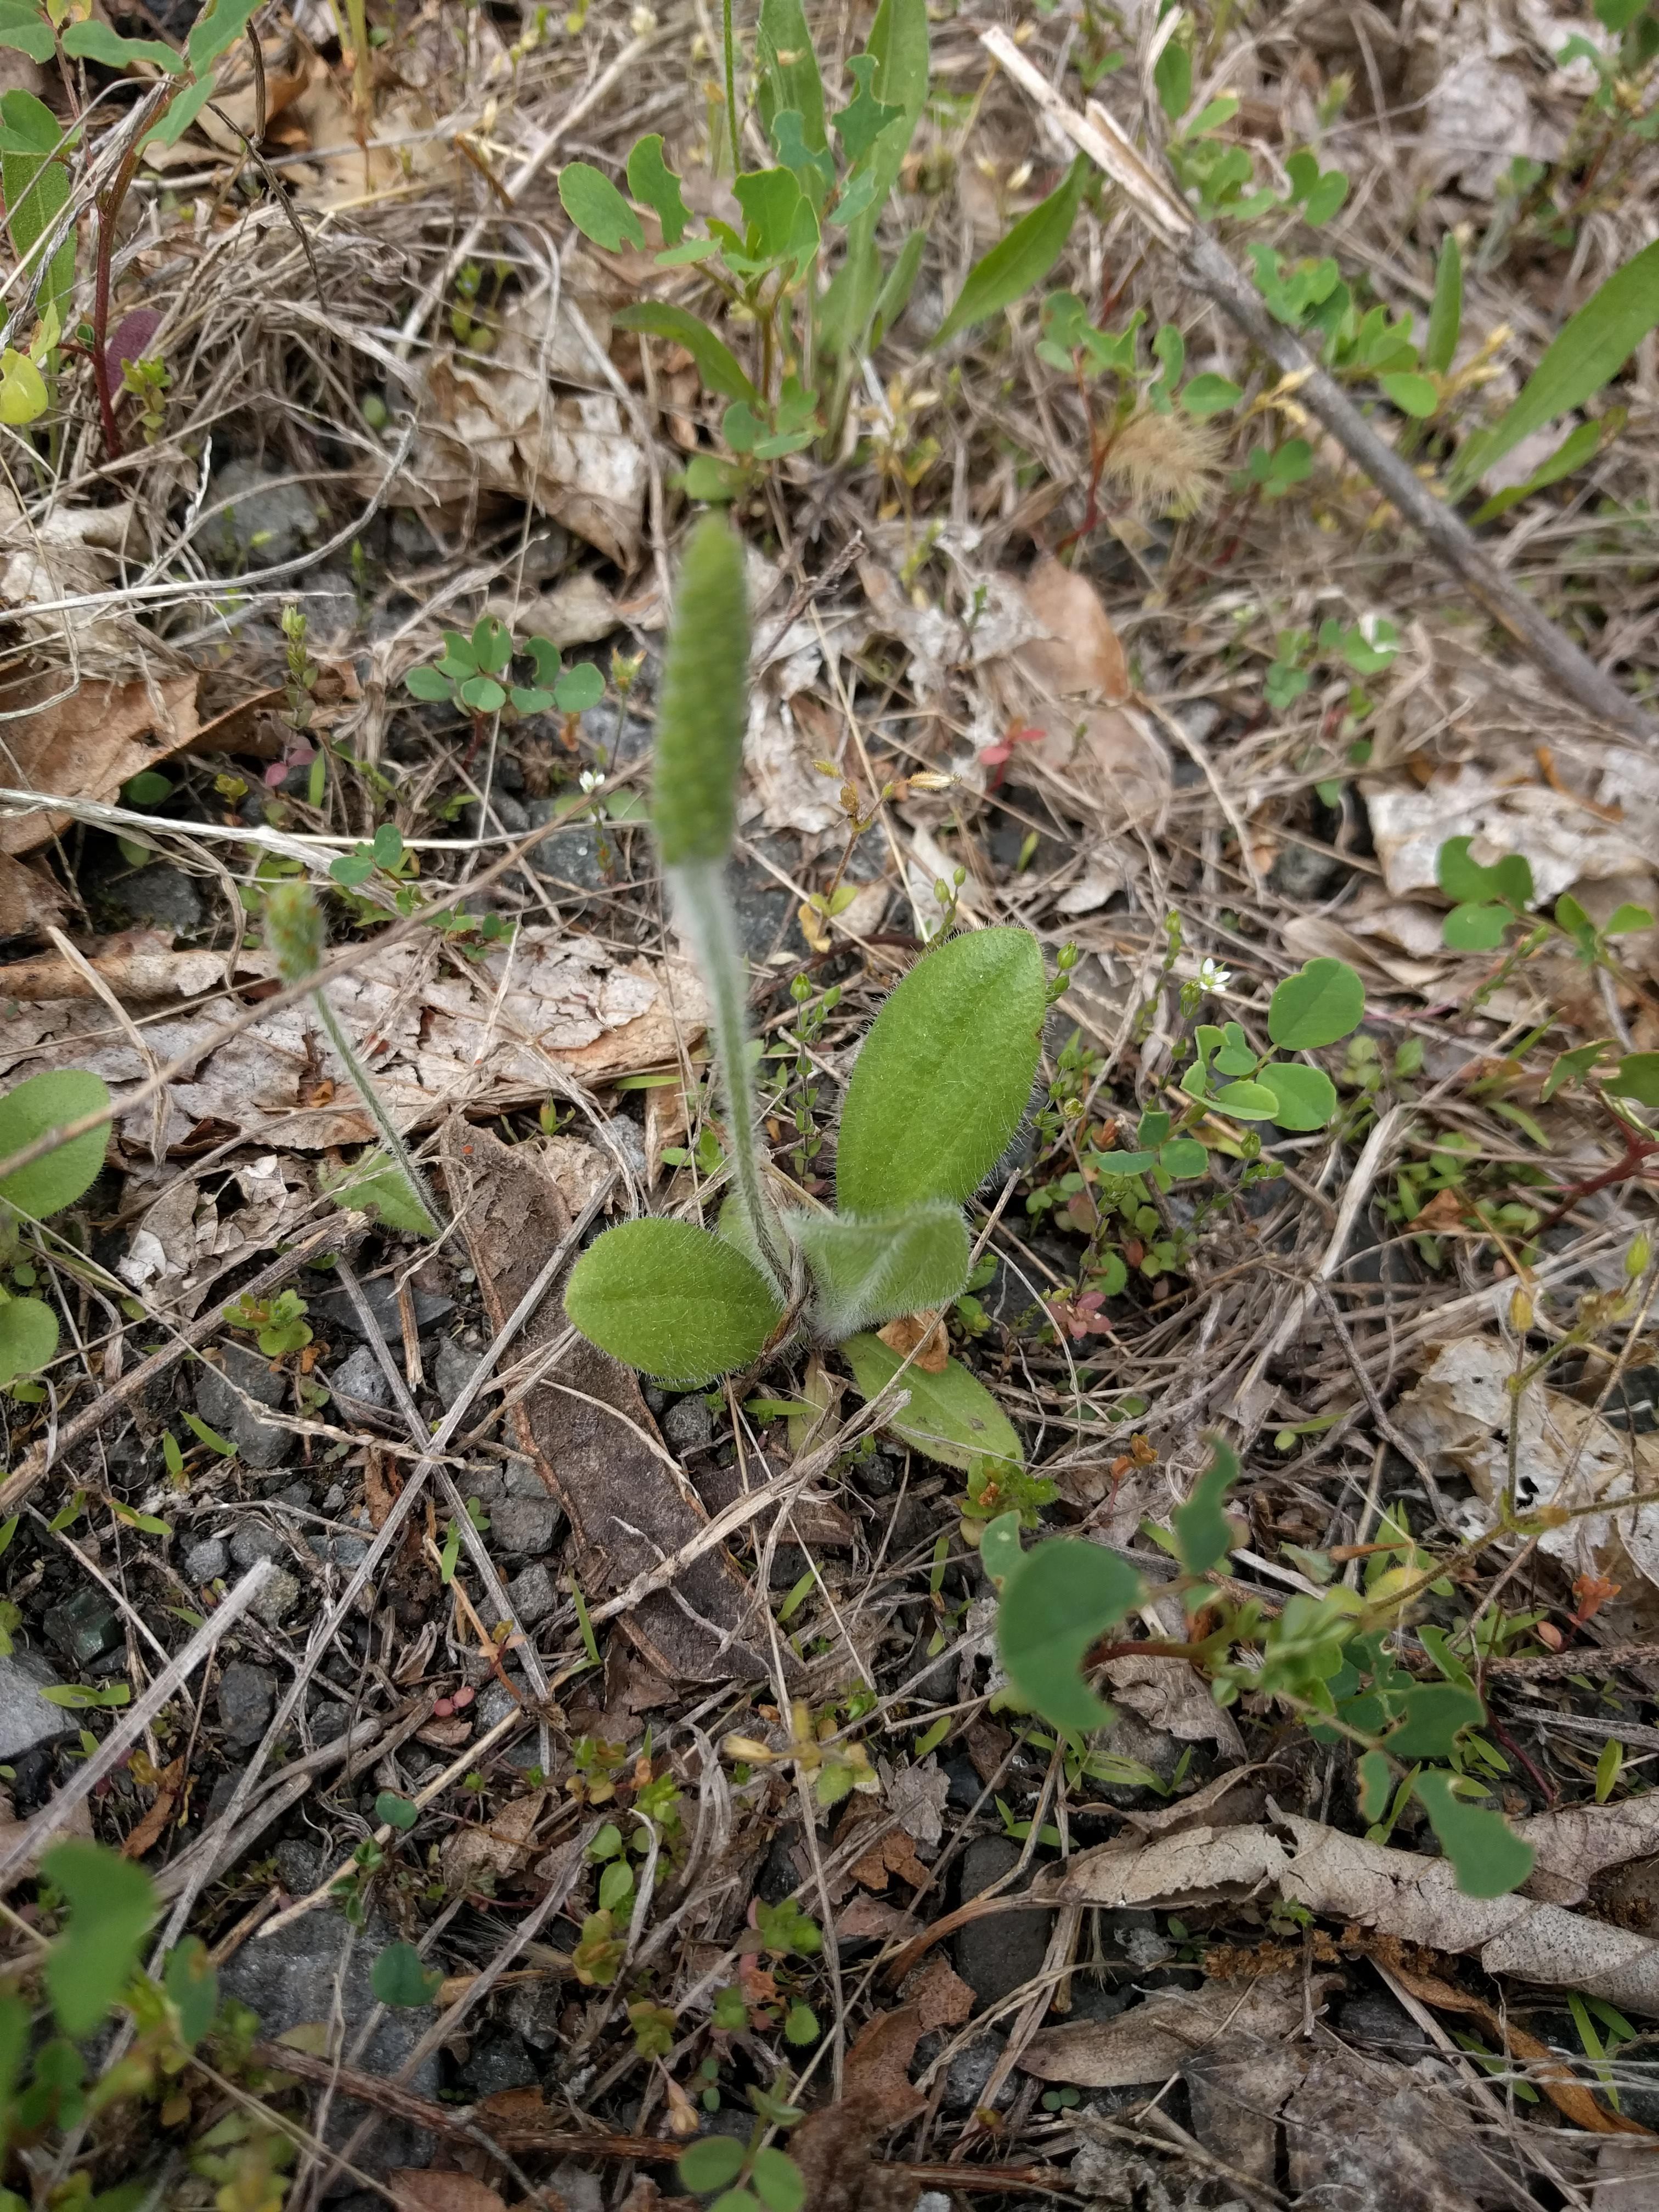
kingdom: Plantae
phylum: Tracheophyta
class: Magnoliopsida
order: Lamiales
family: Plantaginaceae
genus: Plantago
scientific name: Plantago virginica
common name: Hoary plantain
